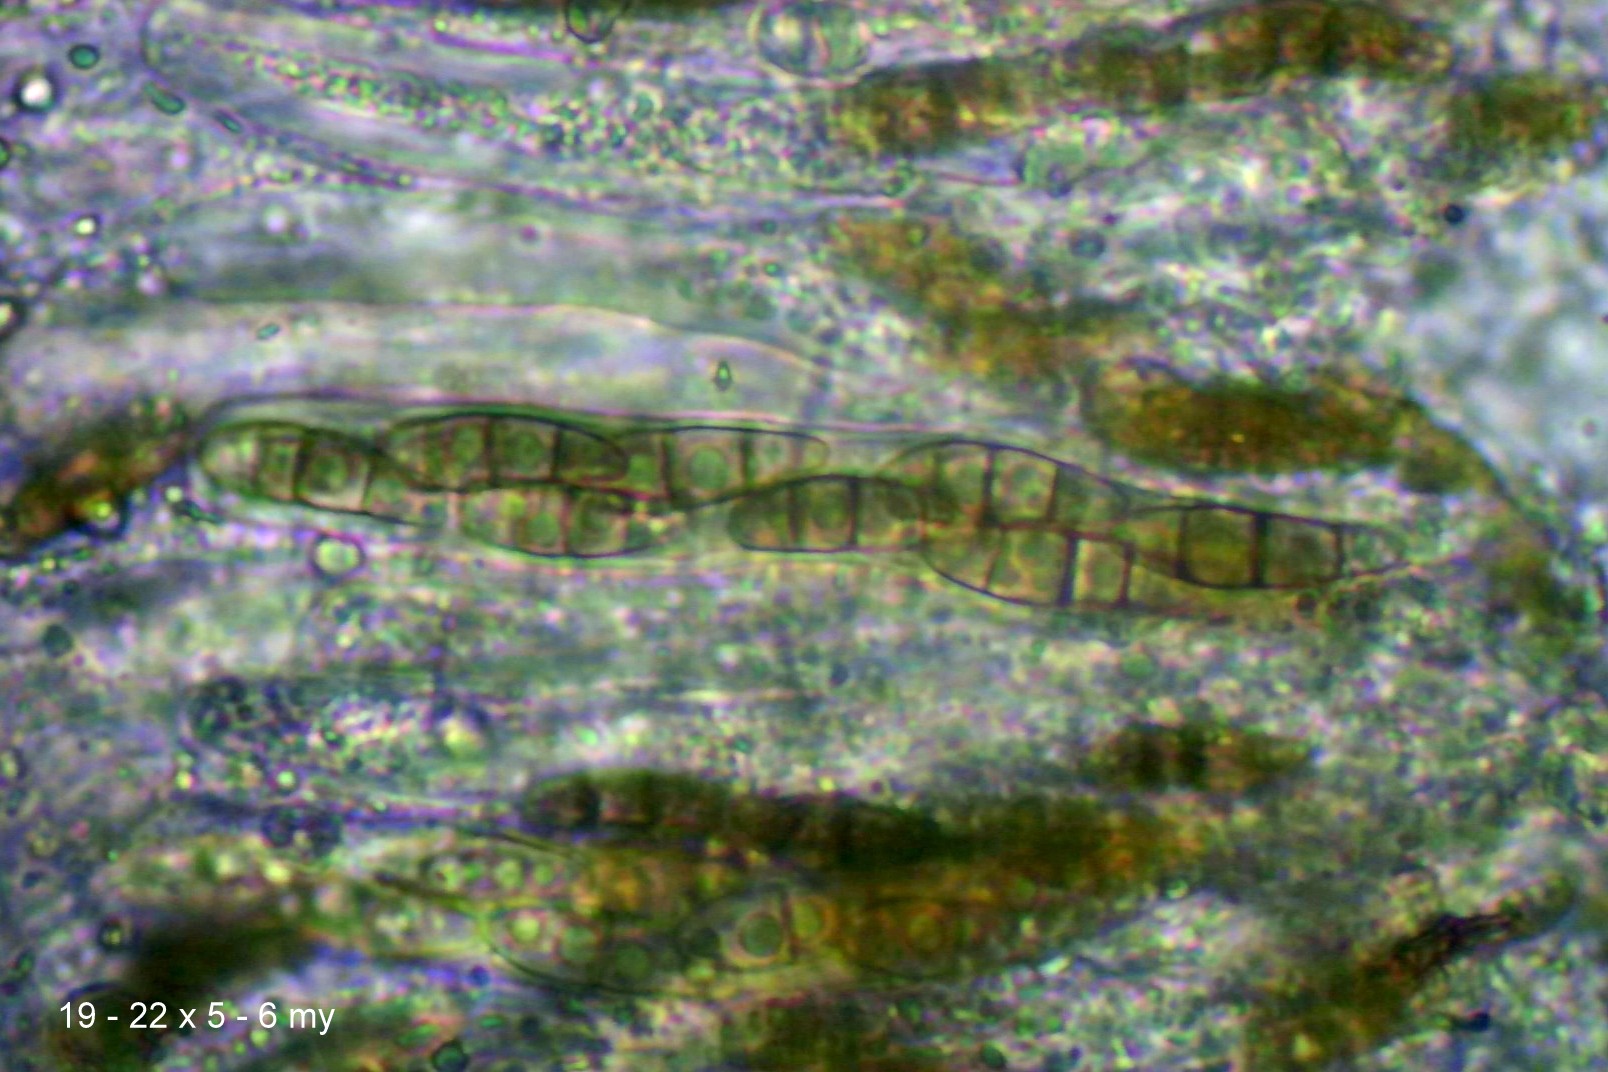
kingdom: Fungi
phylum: Ascomycota
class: Dothideomycetes
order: Hysteriales
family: Hysteriaceae
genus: Hysterium
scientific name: Hysterium acuminatum
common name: almindelig kulmund
